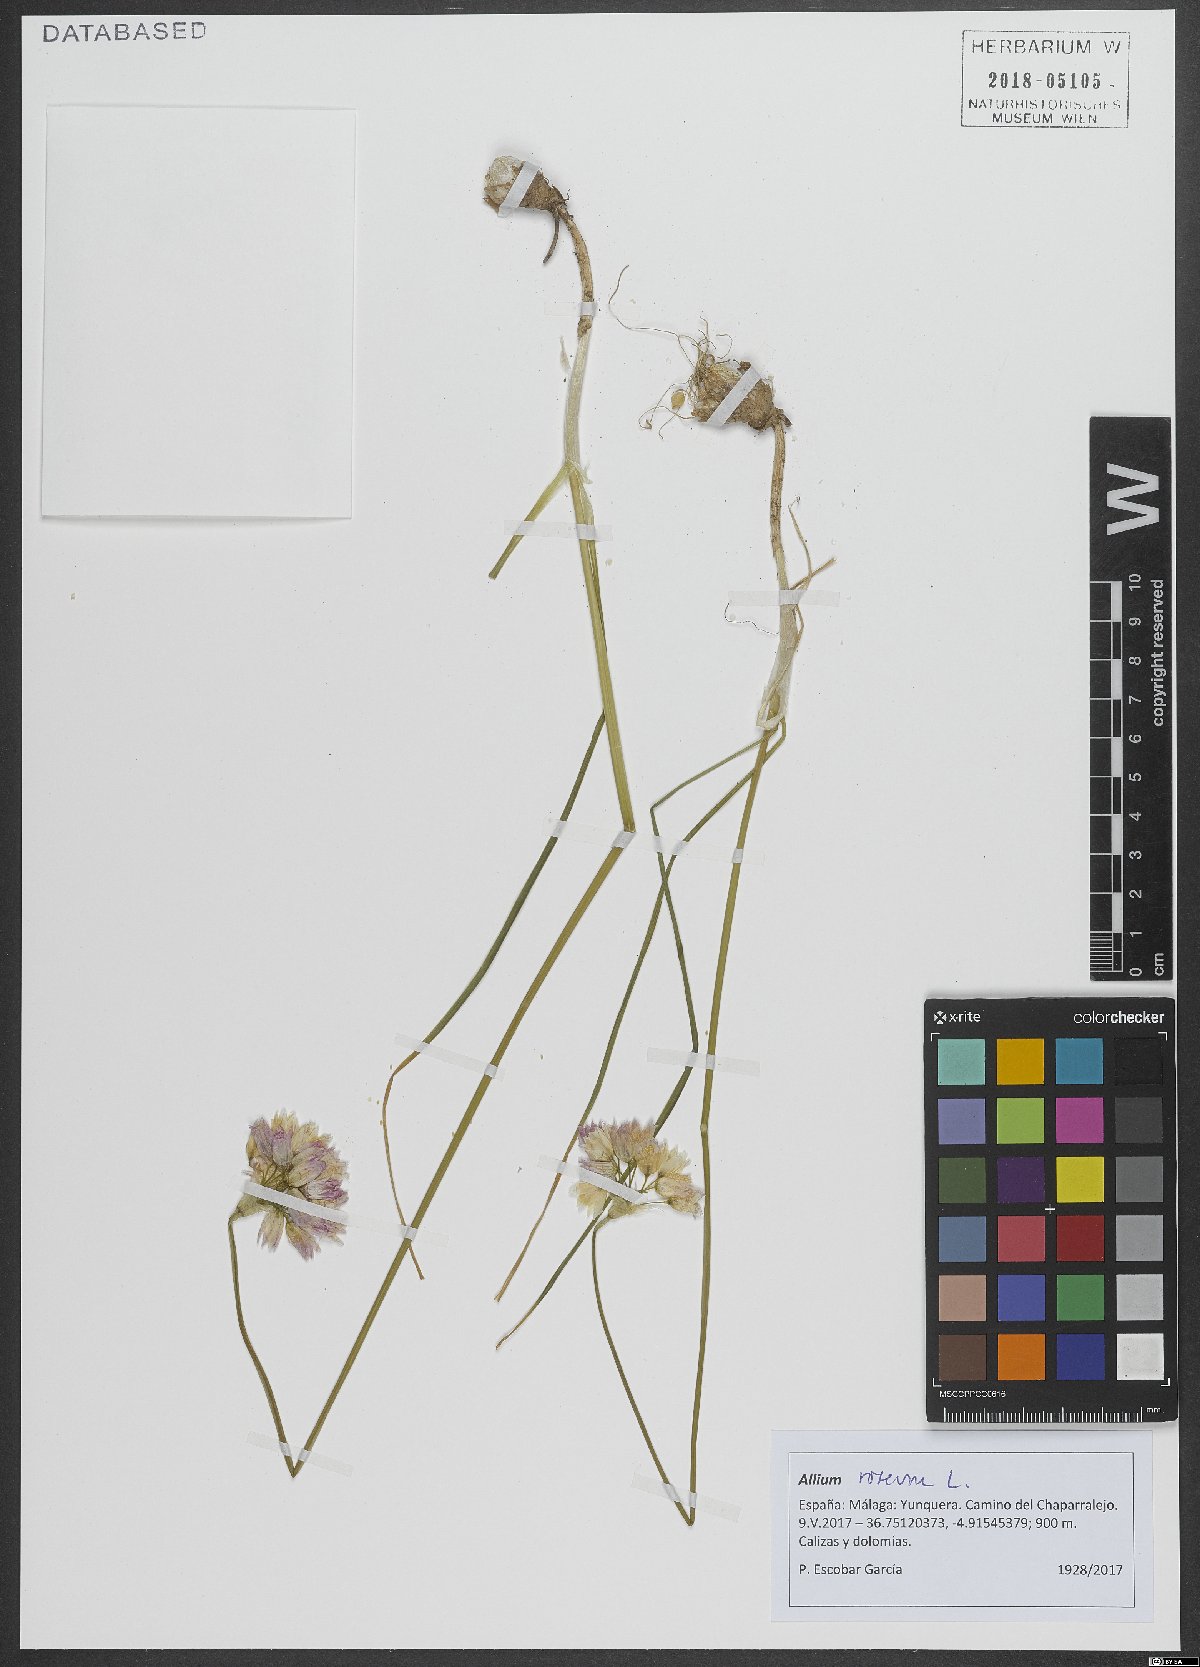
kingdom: Plantae
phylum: Tracheophyta
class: Liliopsida
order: Asparagales
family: Amaryllidaceae
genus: Allium
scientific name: Allium roseum
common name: Rosy garlic
